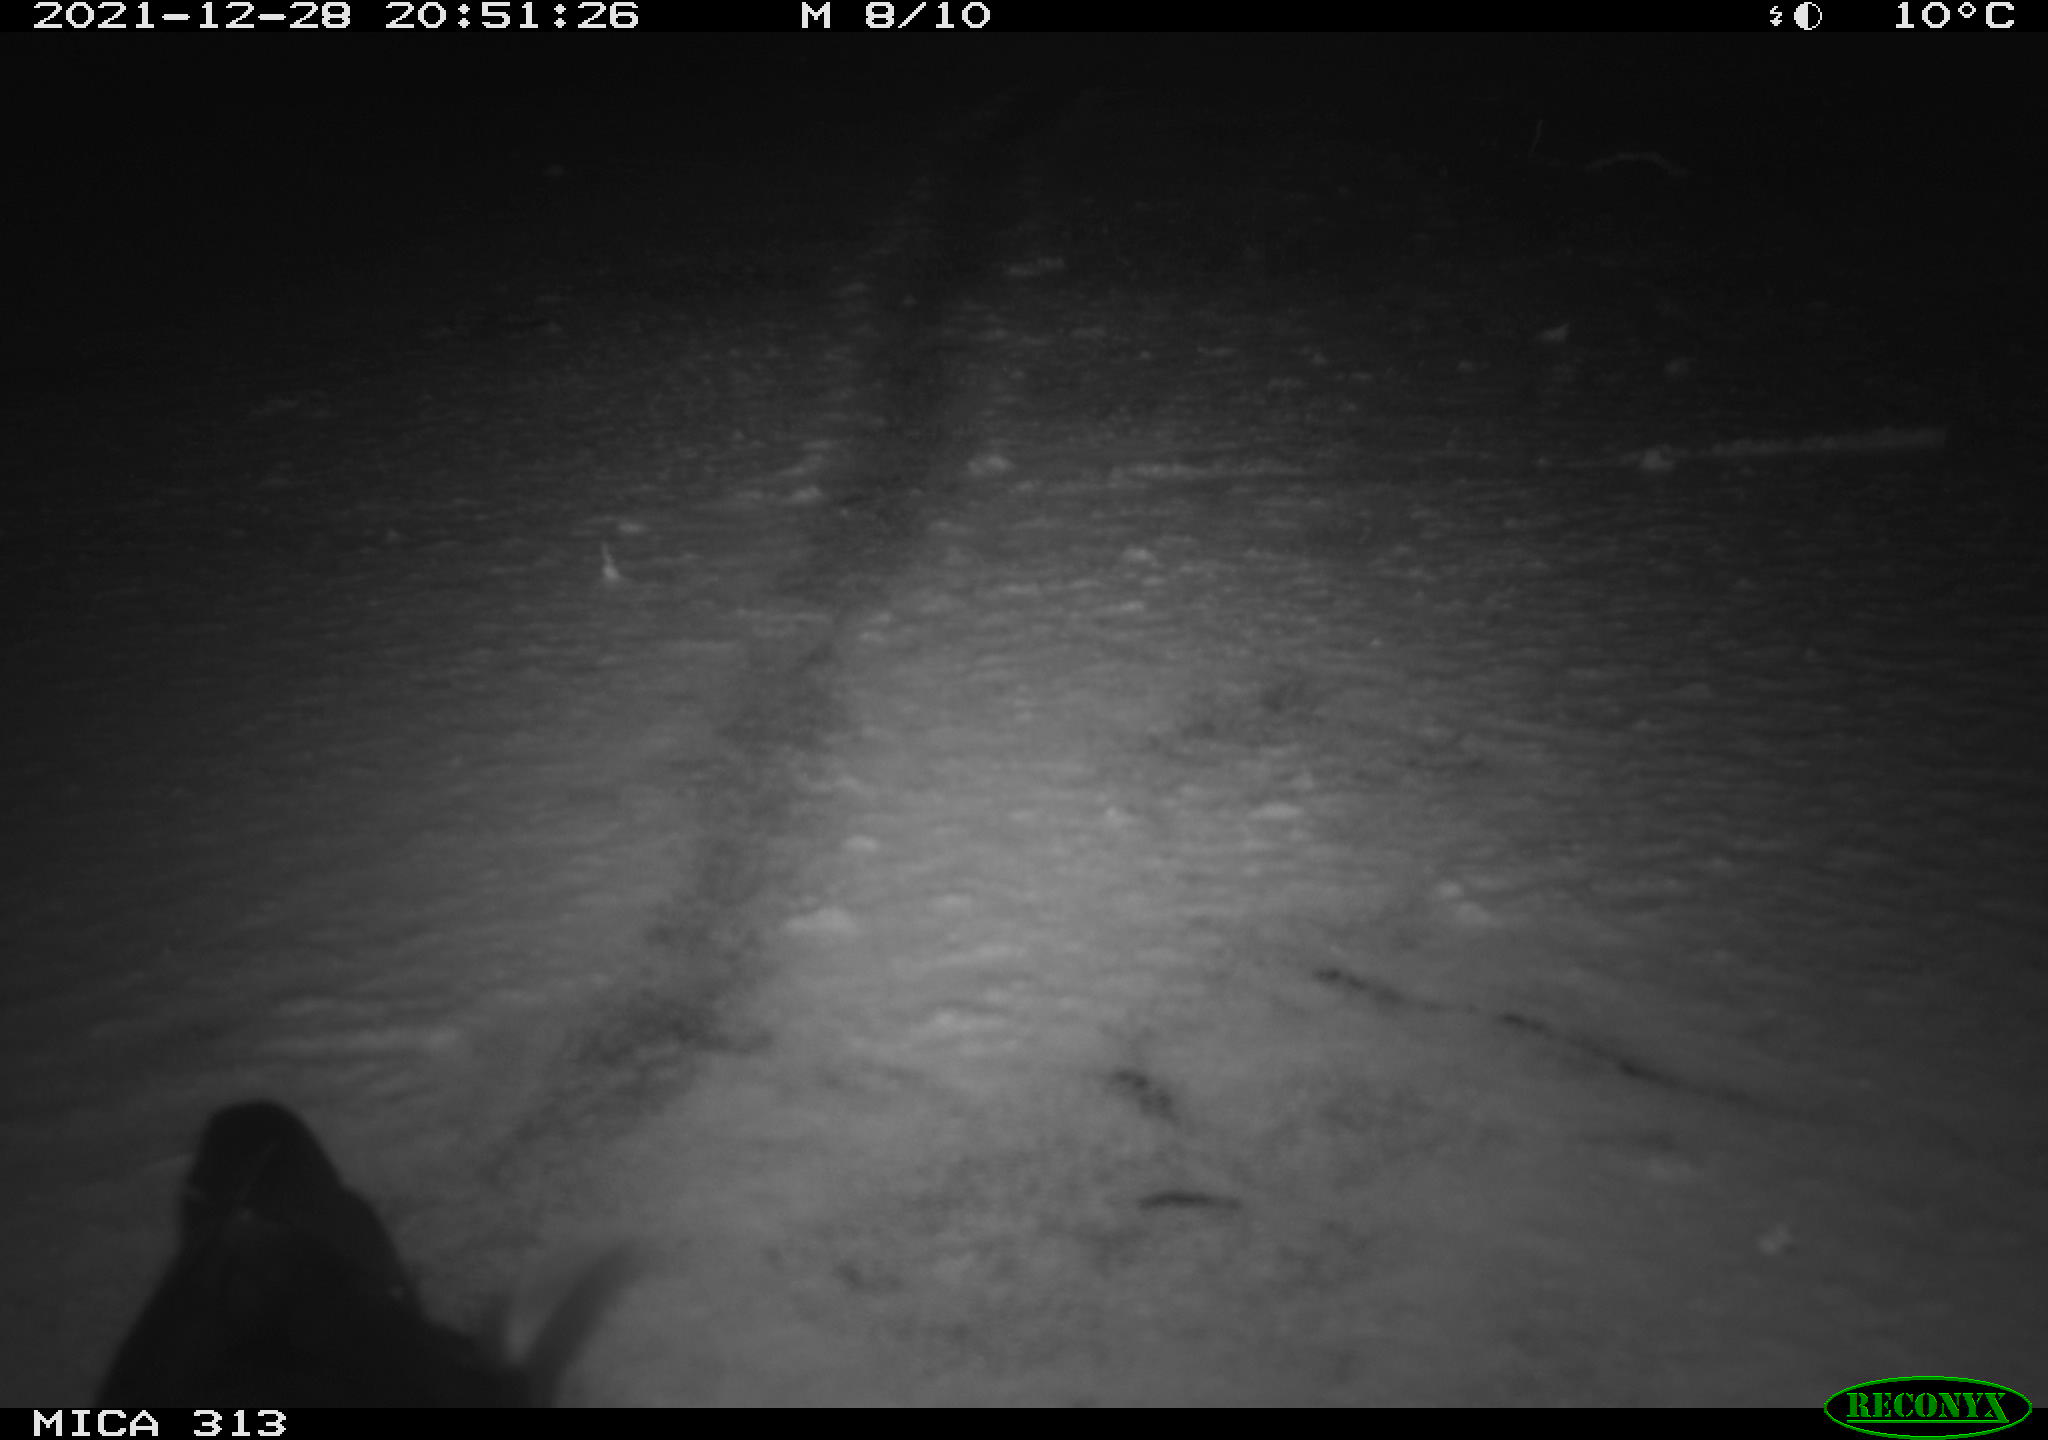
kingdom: Animalia
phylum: Chordata
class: Aves
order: Gruiformes
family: Rallidae
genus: Gallinula
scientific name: Gallinula chloropus
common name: Common moorhen
